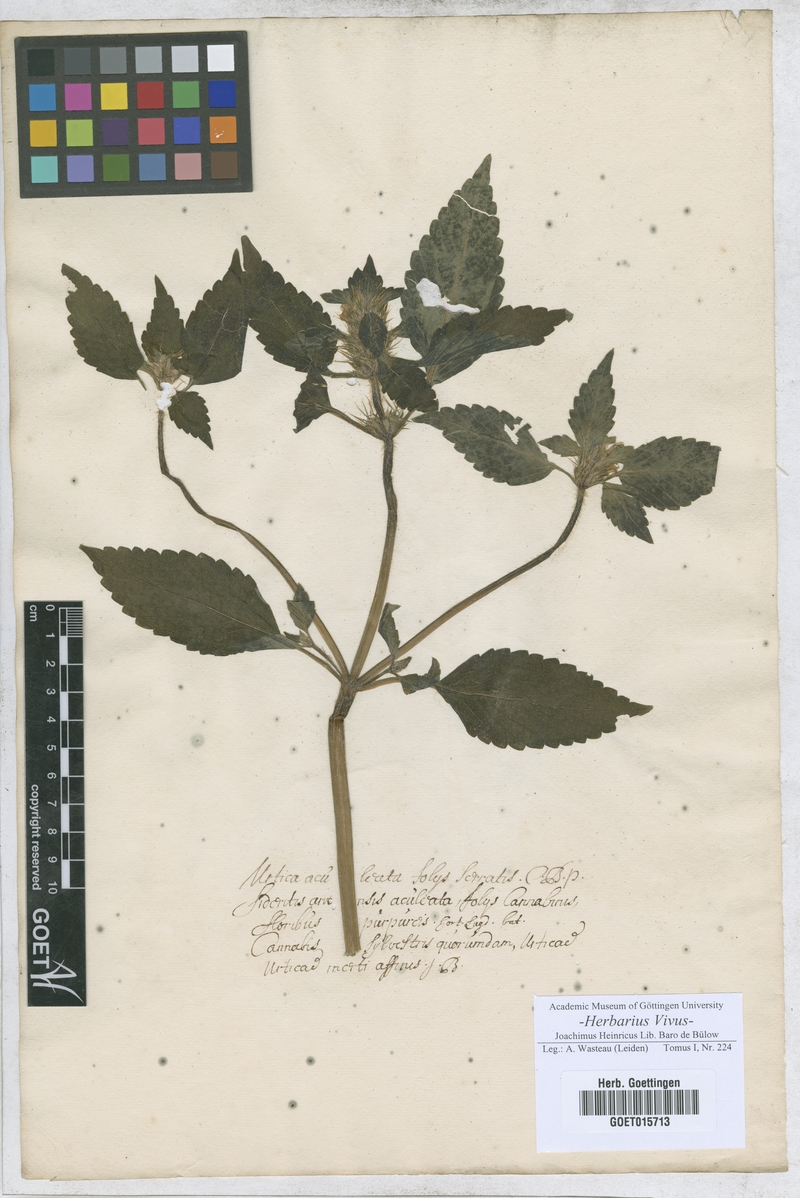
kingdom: Plantae
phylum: Tracheophyta
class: Magnoliopsida
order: Rosales
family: Urticaceae
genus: Urtica
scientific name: Urtica
